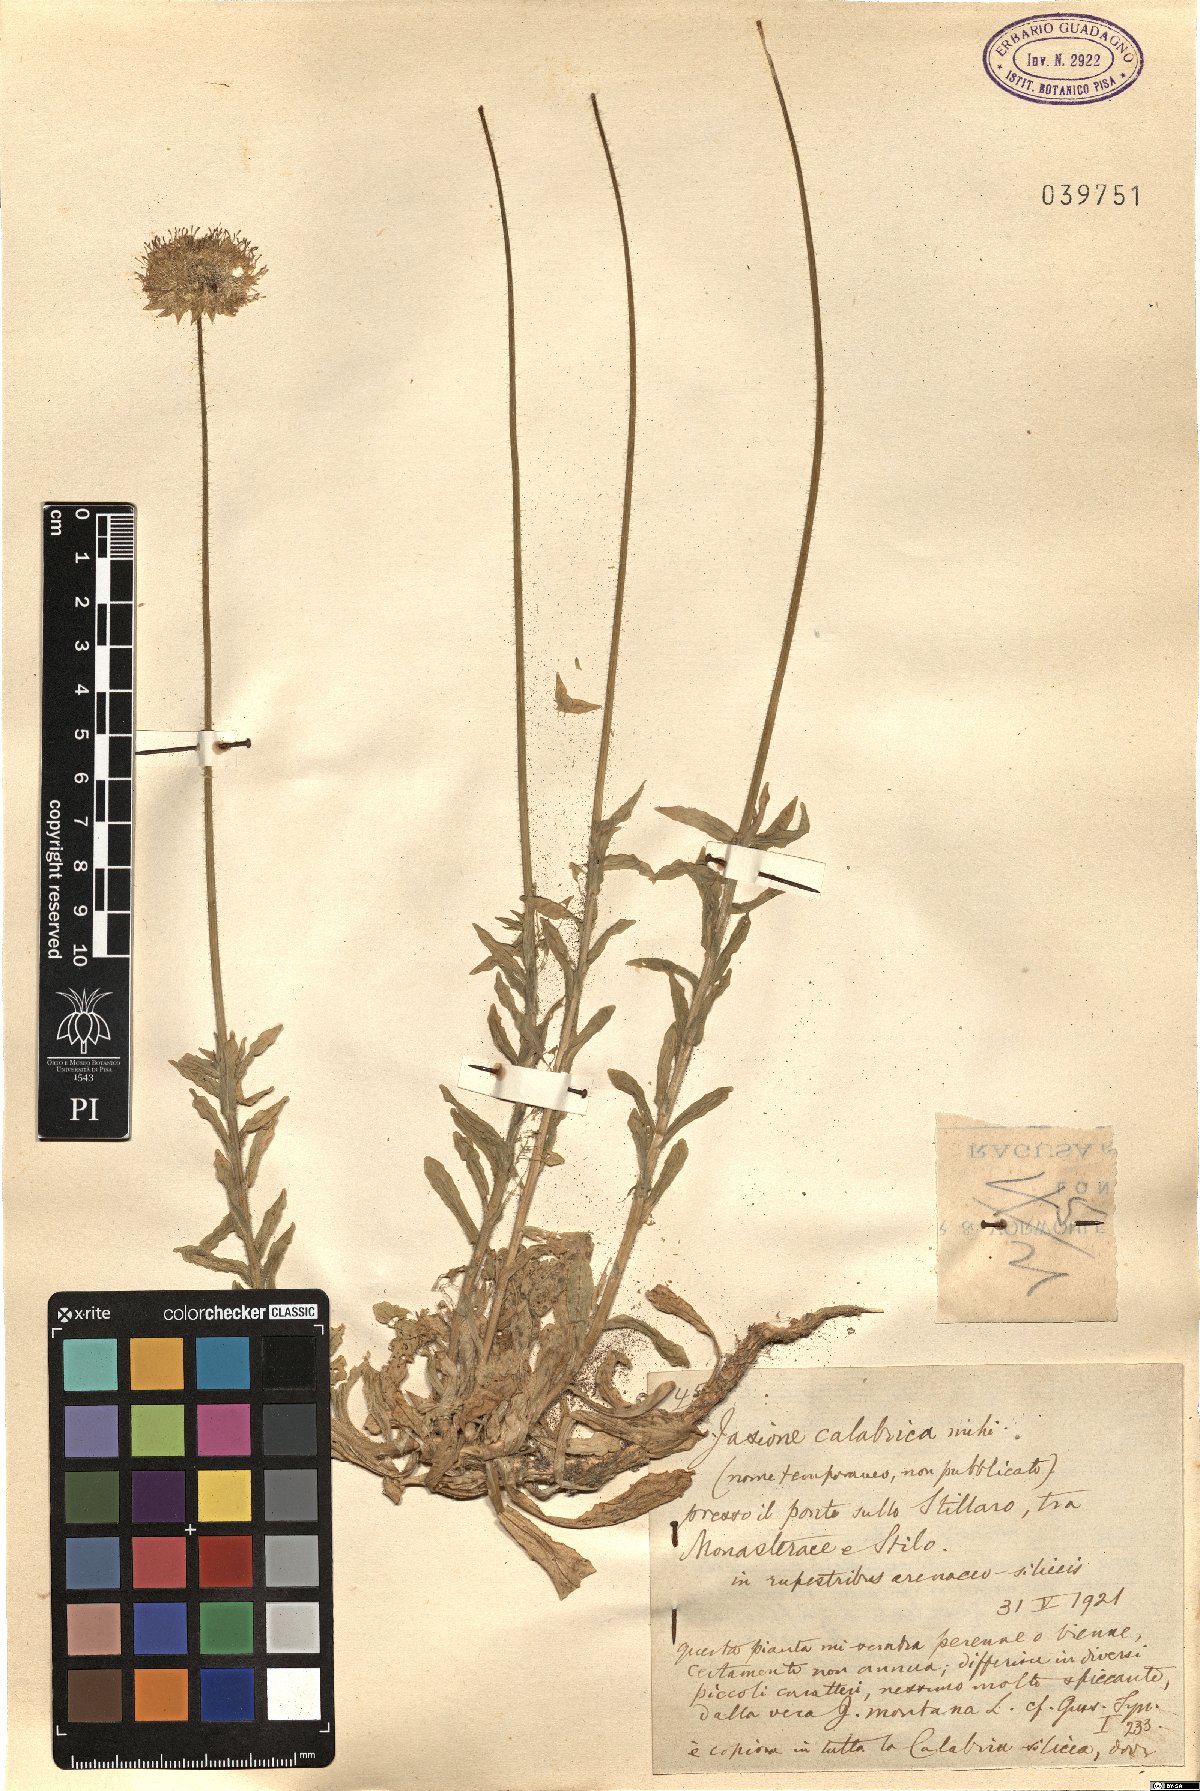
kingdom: Plantae
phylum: Tracheophyta
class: Magnoliopsida
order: Asterales
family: Campanulaceae
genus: Jasione
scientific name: Jasione
